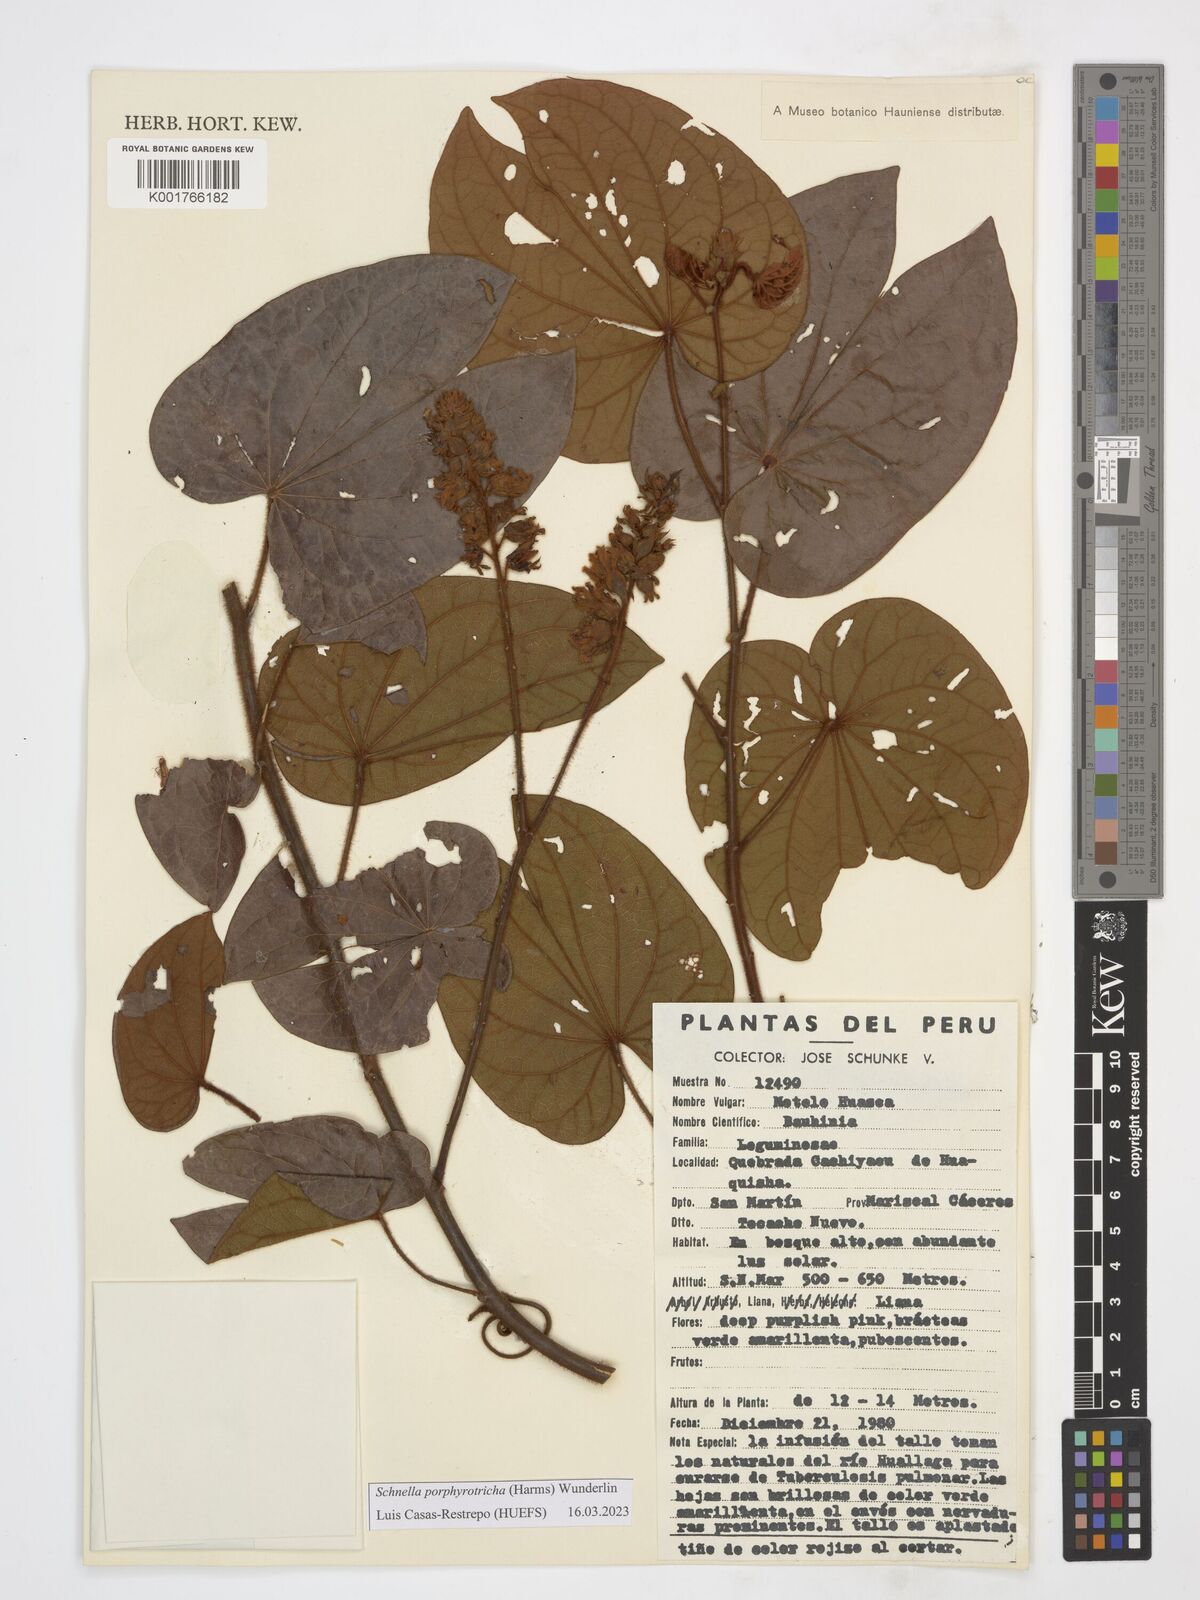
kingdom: Plantae
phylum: Tracheophyta
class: Magnoliopsida
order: Fabales
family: Fabaceae
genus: Schnella
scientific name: Schnella porphyrotricha
